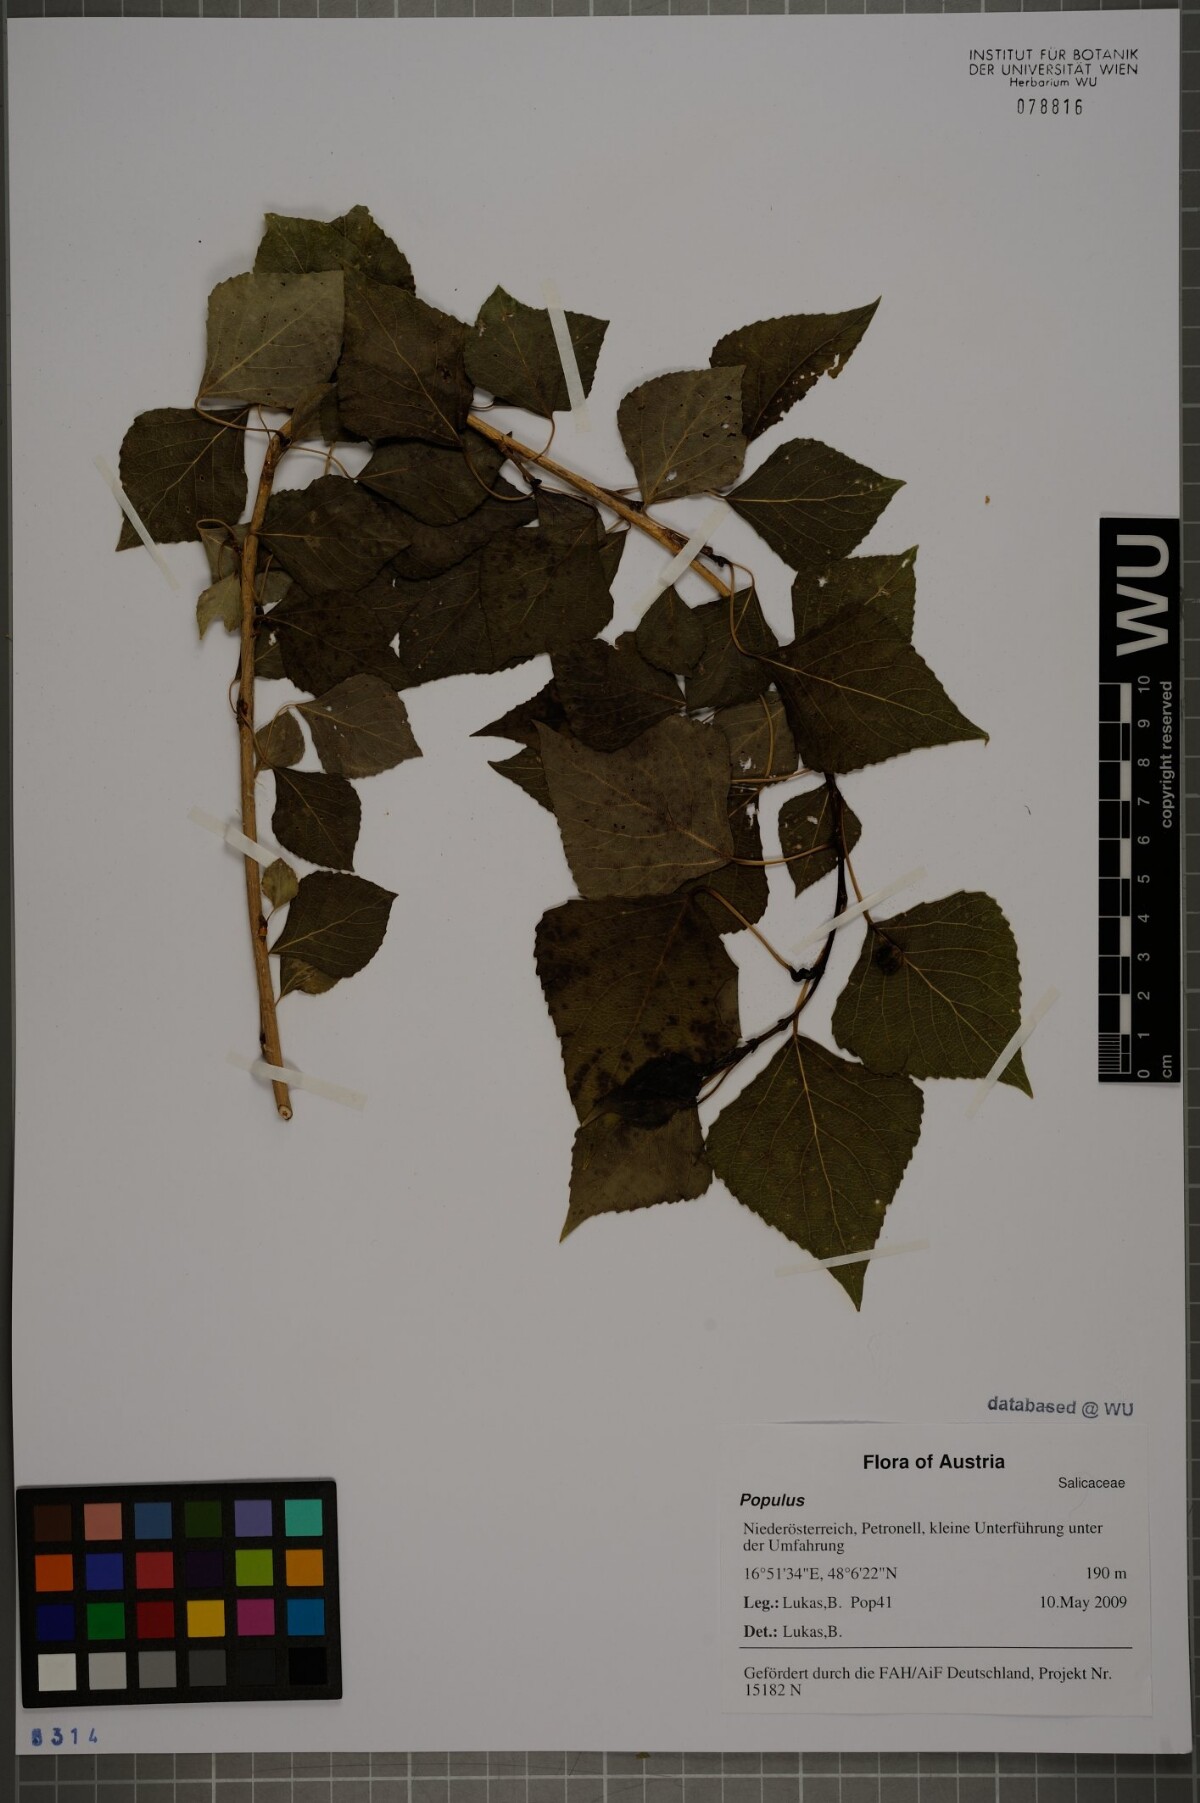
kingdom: Plantae
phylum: Tracheophyta
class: Magnoliopsida
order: Malpighiales
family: Salicaceae
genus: Populus
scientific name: Populus
